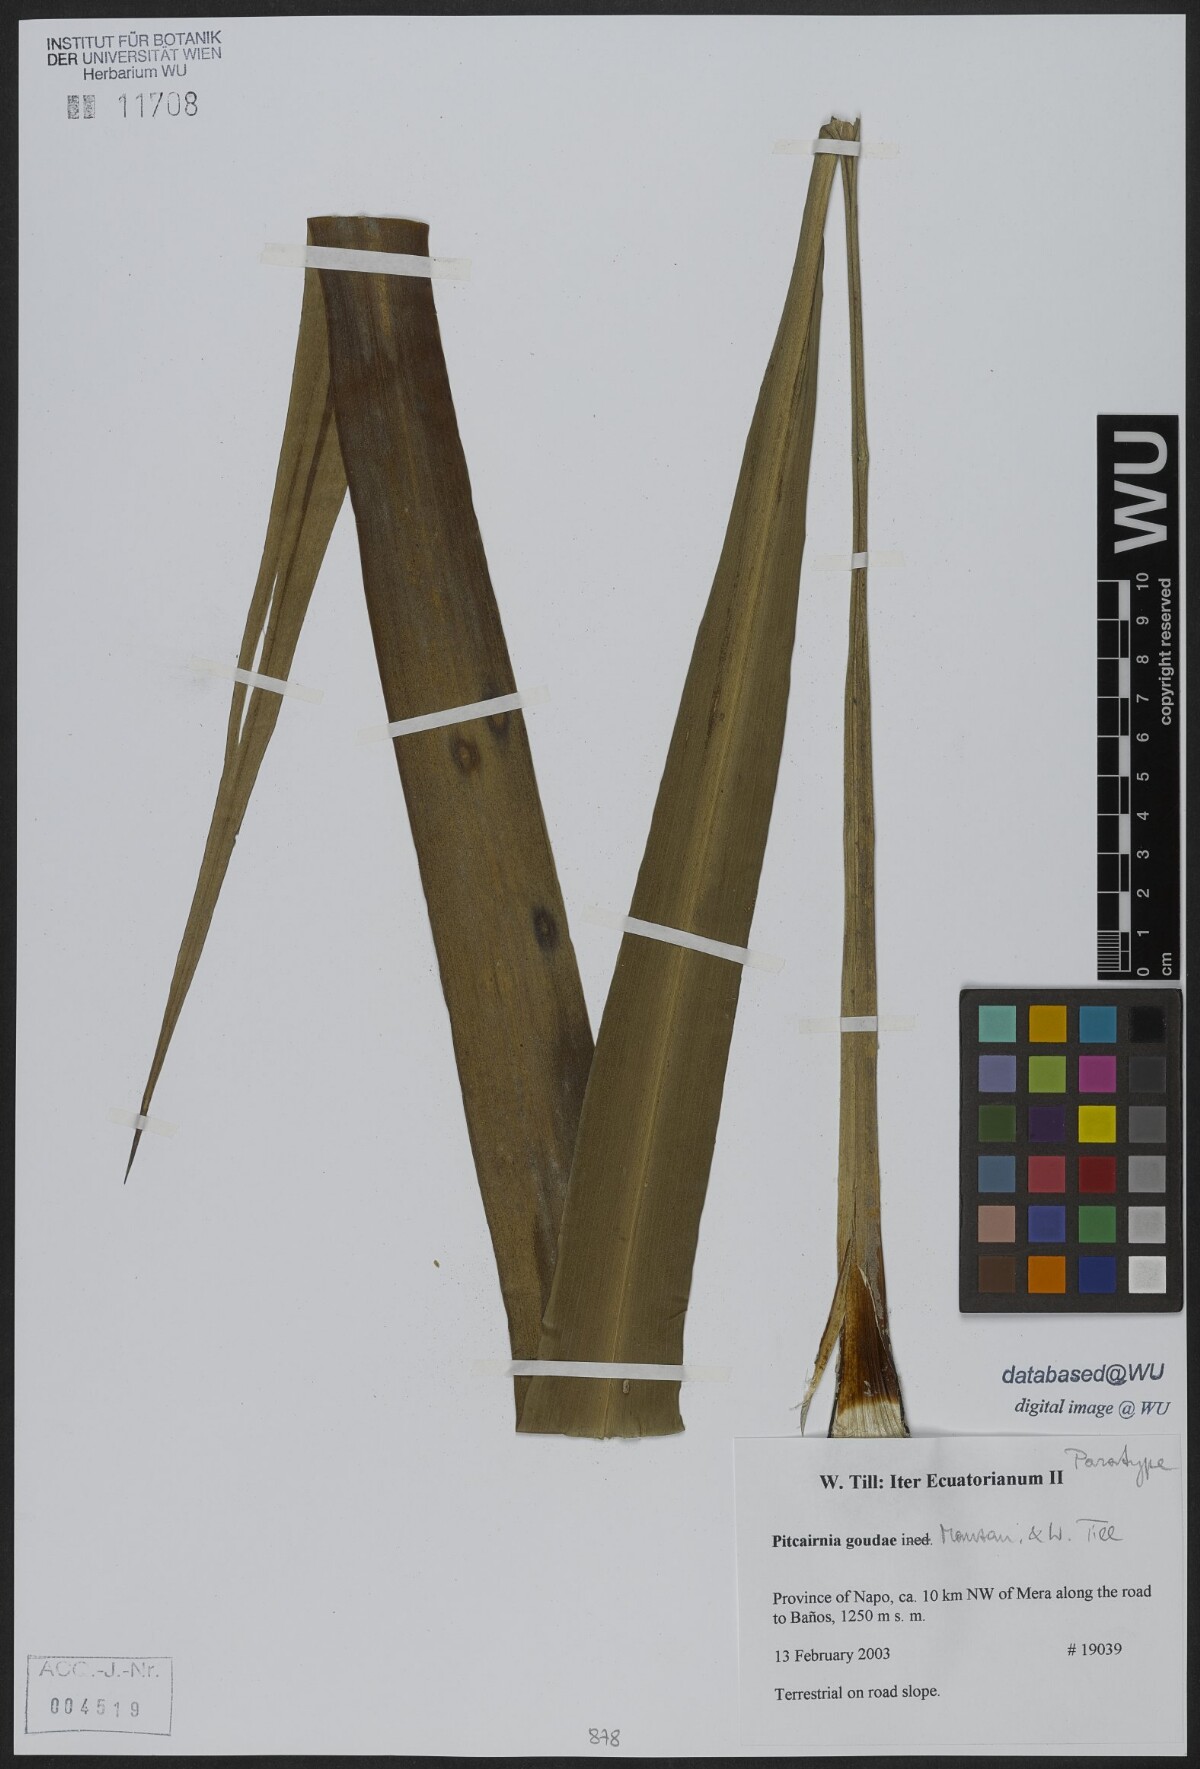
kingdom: Plantae
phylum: Tracheophyta
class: Liliopsida
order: Poales
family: Bromeliaceae
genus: Pitcairnia
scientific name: Pitcairnia goudae
